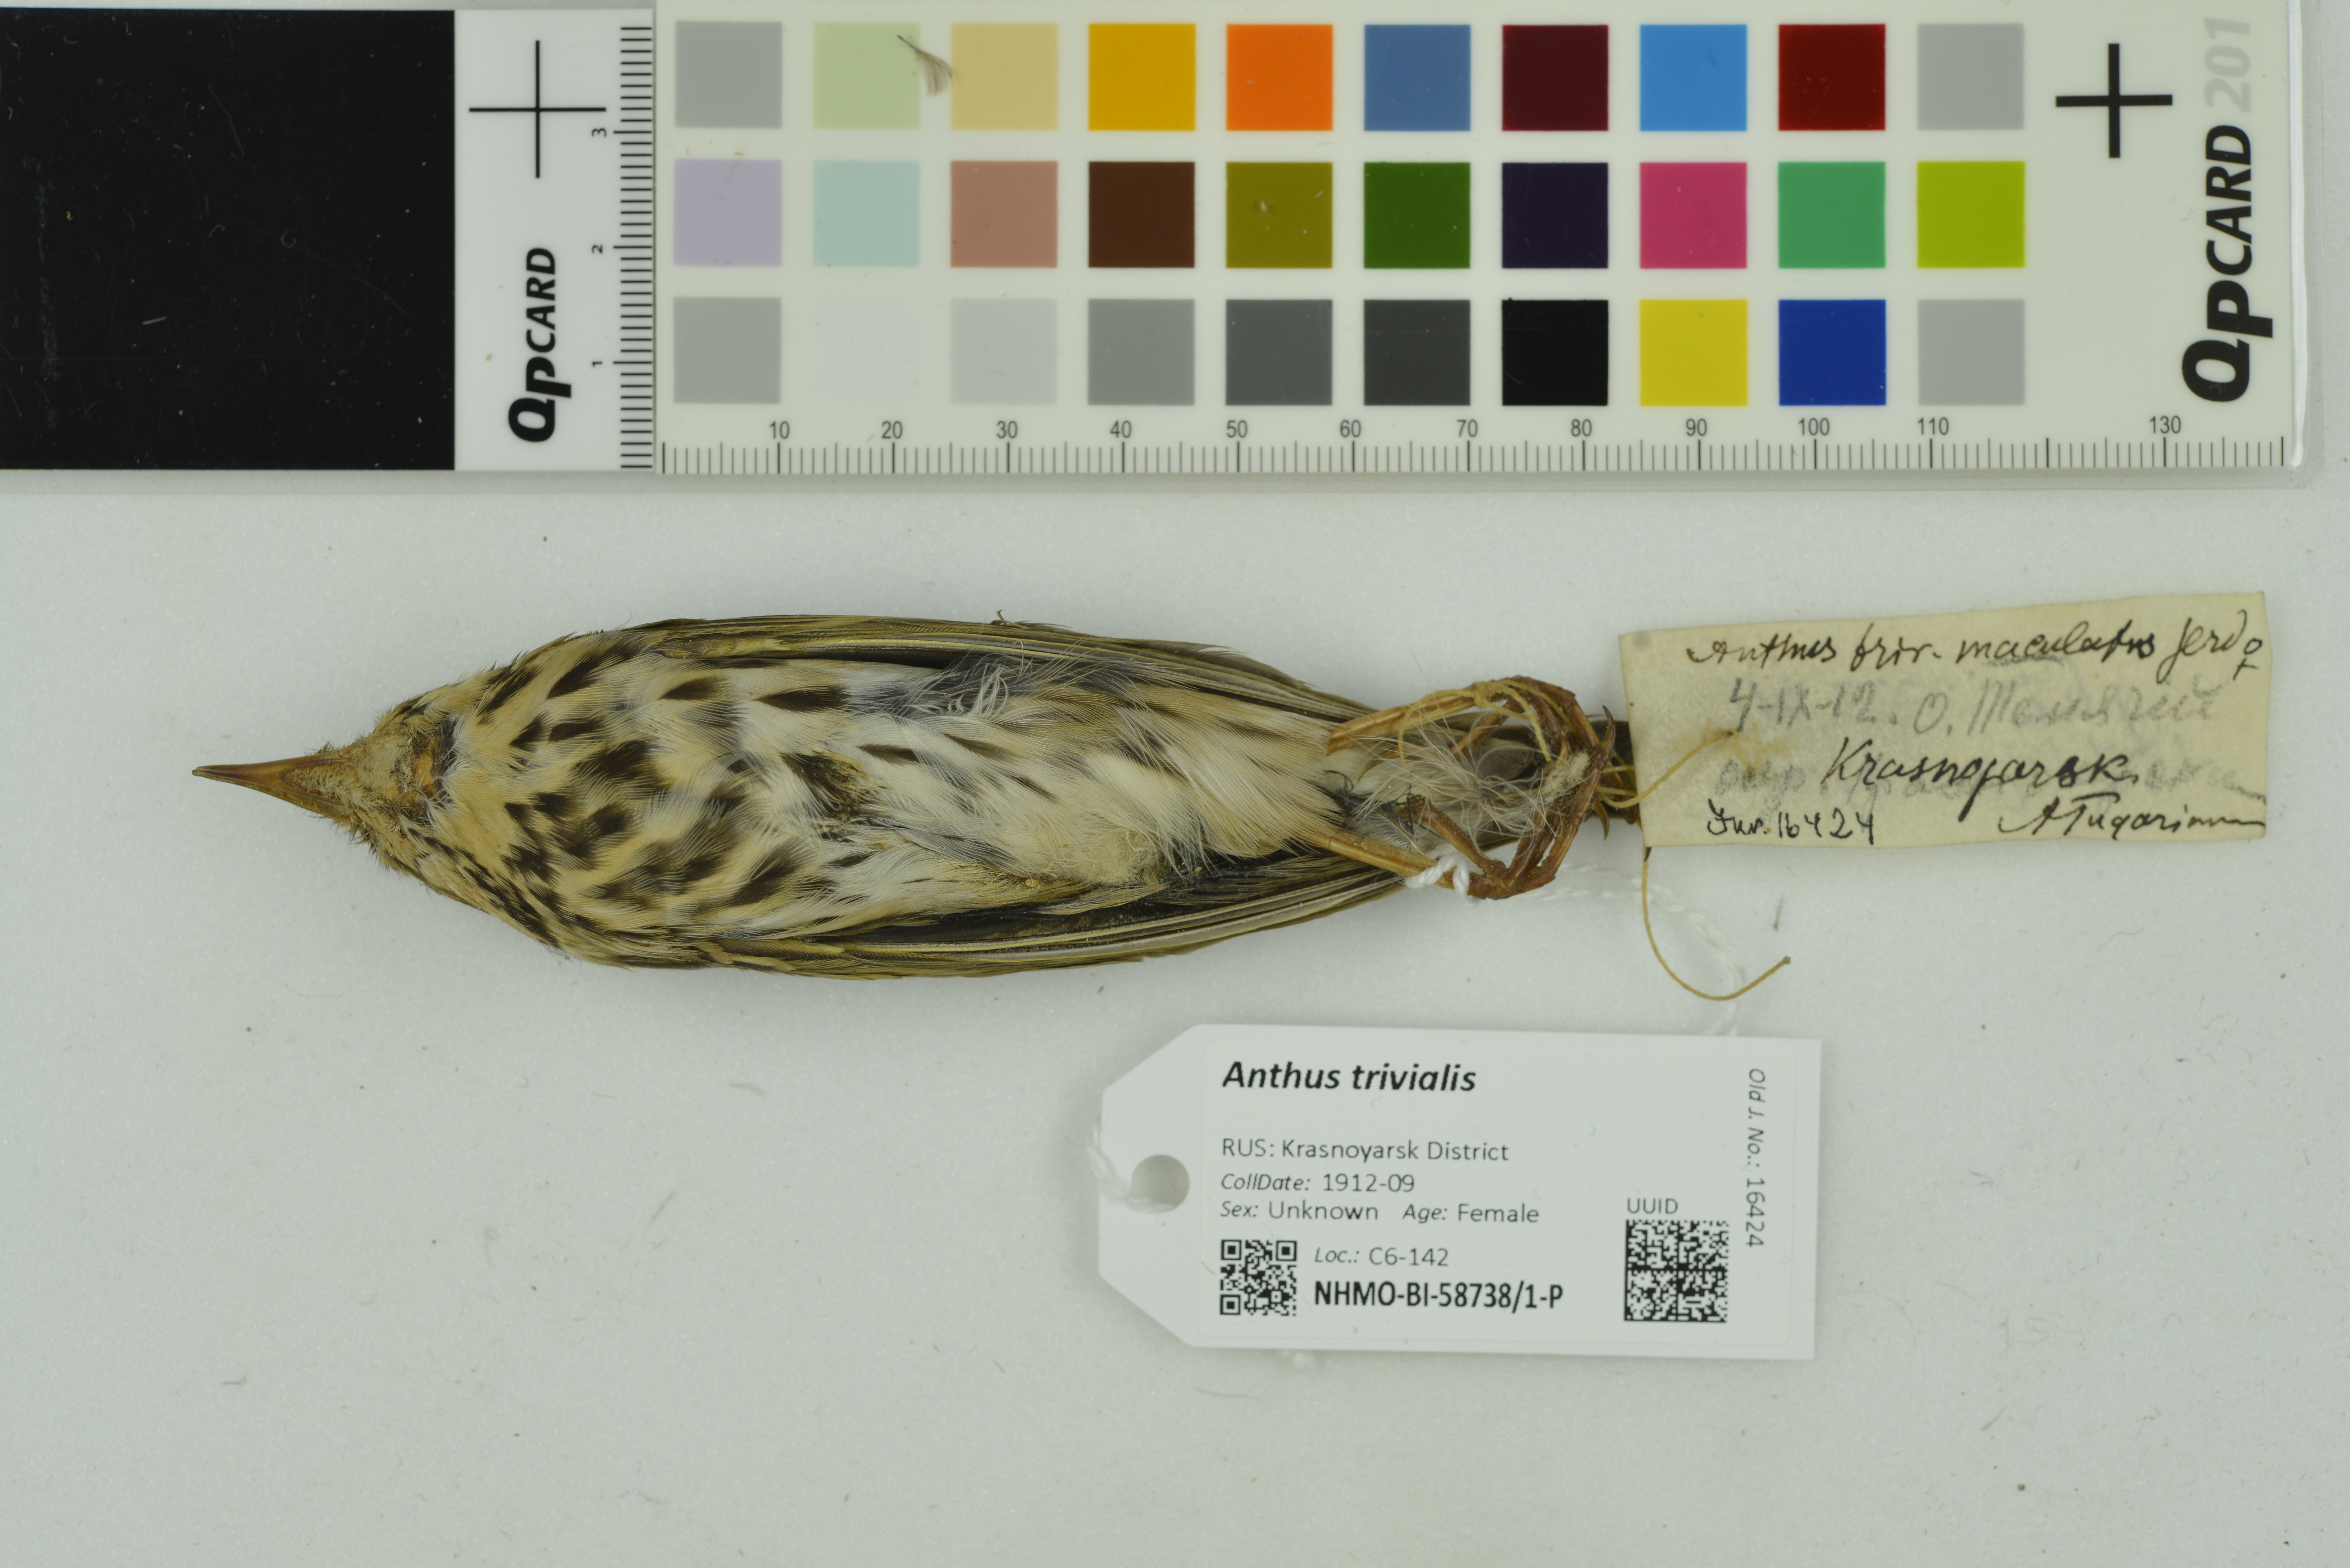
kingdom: Animalia
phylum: Chordata
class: Aves
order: Passeriformes
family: Motacillidae
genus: Anthus
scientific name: Anthus trivialis
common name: Tree pipit
